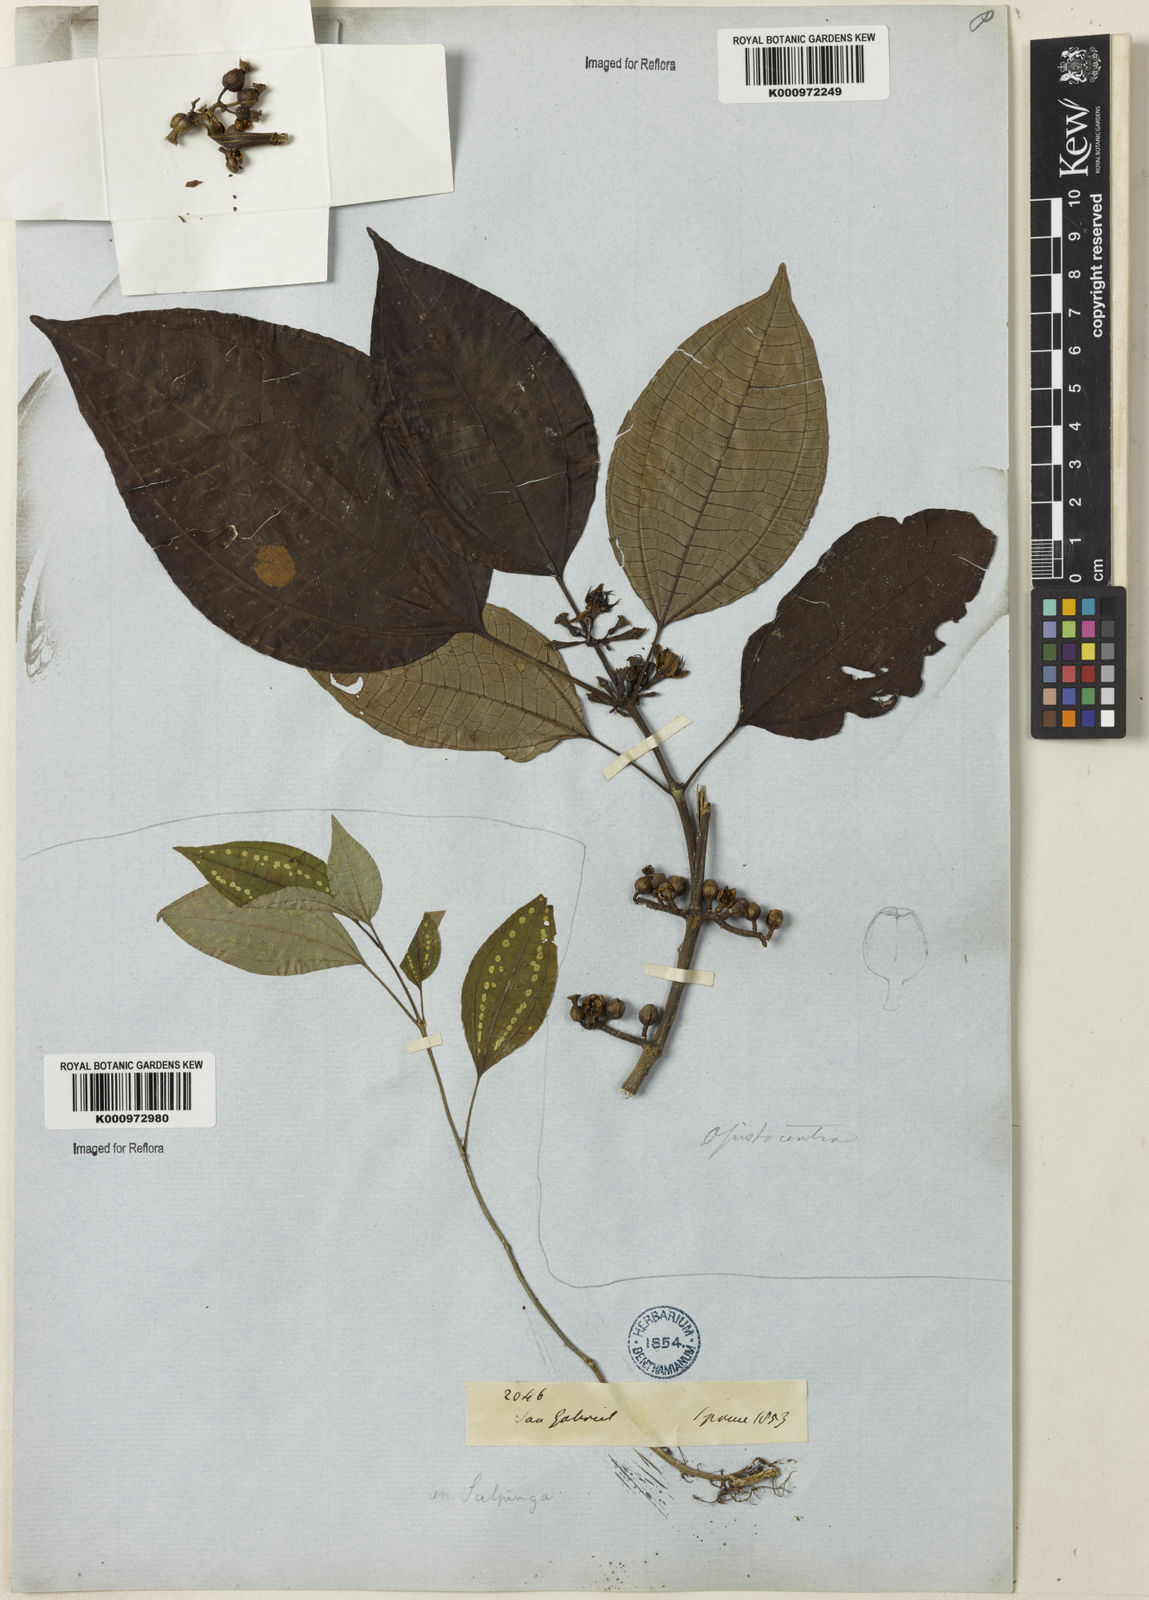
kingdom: Plantae
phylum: Tracheophyta
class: Magnoliopsida
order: Myrtales
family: Melastomataceae
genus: Opisthocentra
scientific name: Opisthocentra clidemioides
